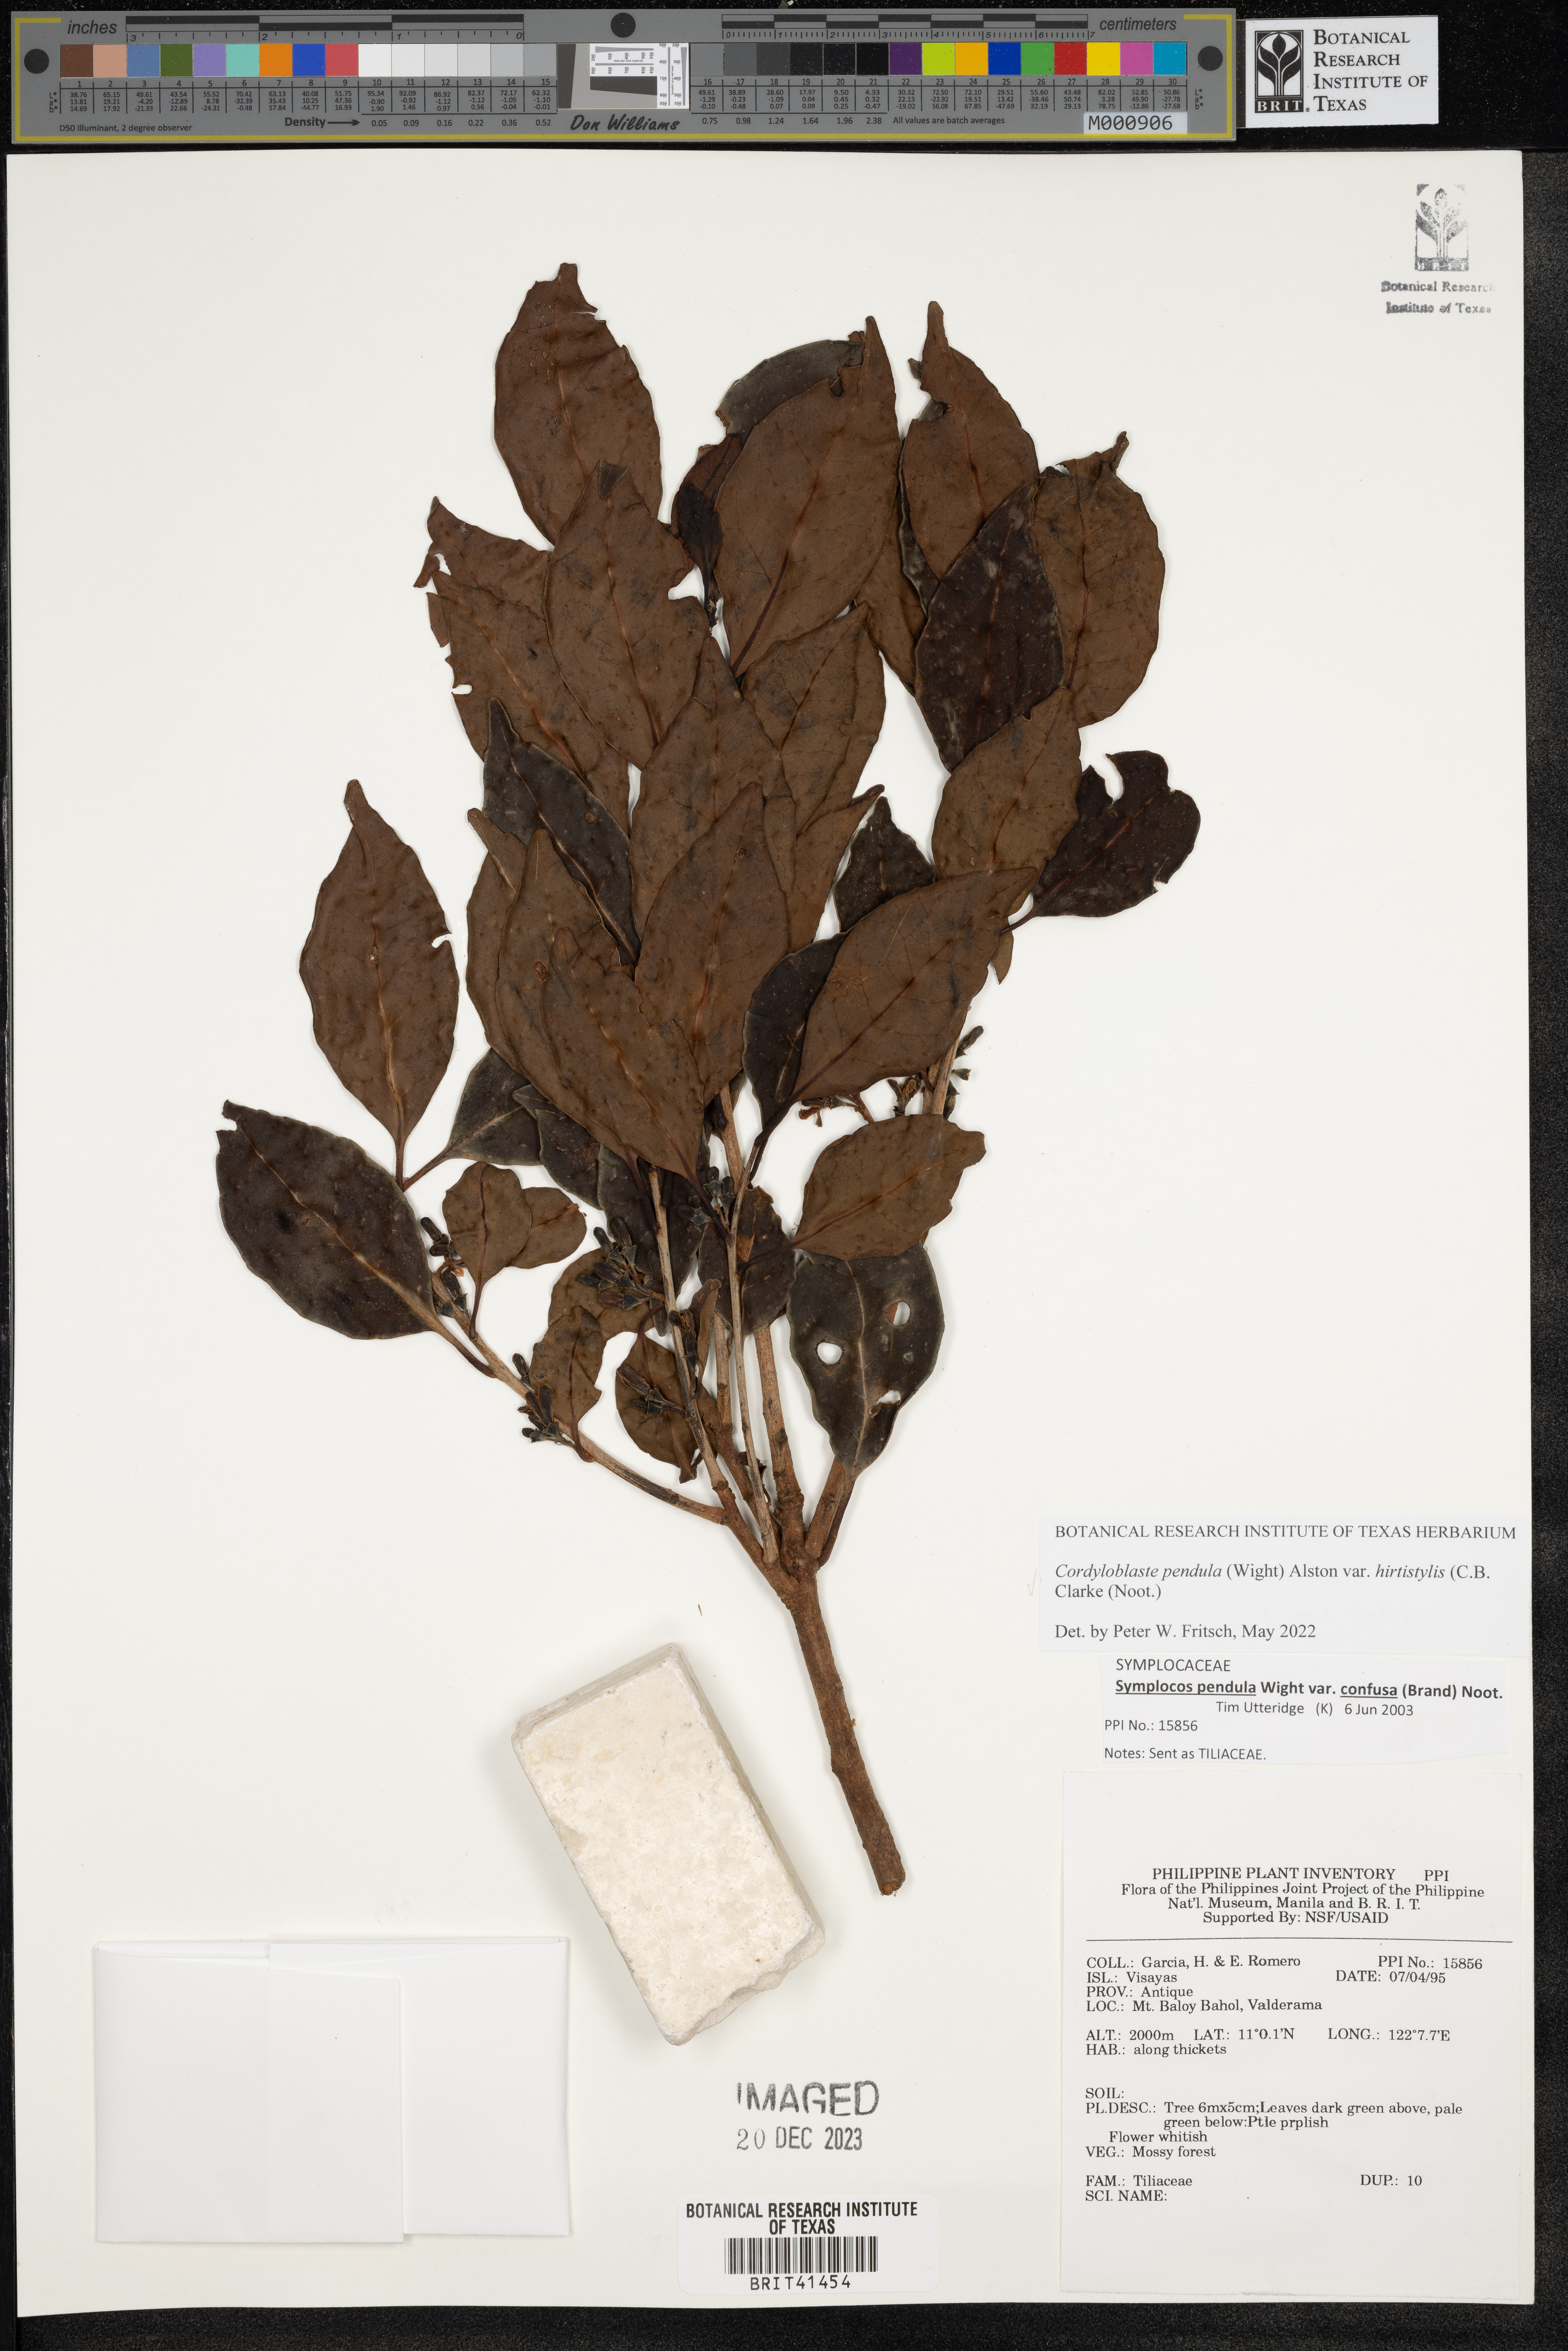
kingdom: Plantae
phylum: Tracheophyta
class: Magnoliopsida
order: Ericales
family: Symplocaceae
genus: Symplocos
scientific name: Symplocos pendula
